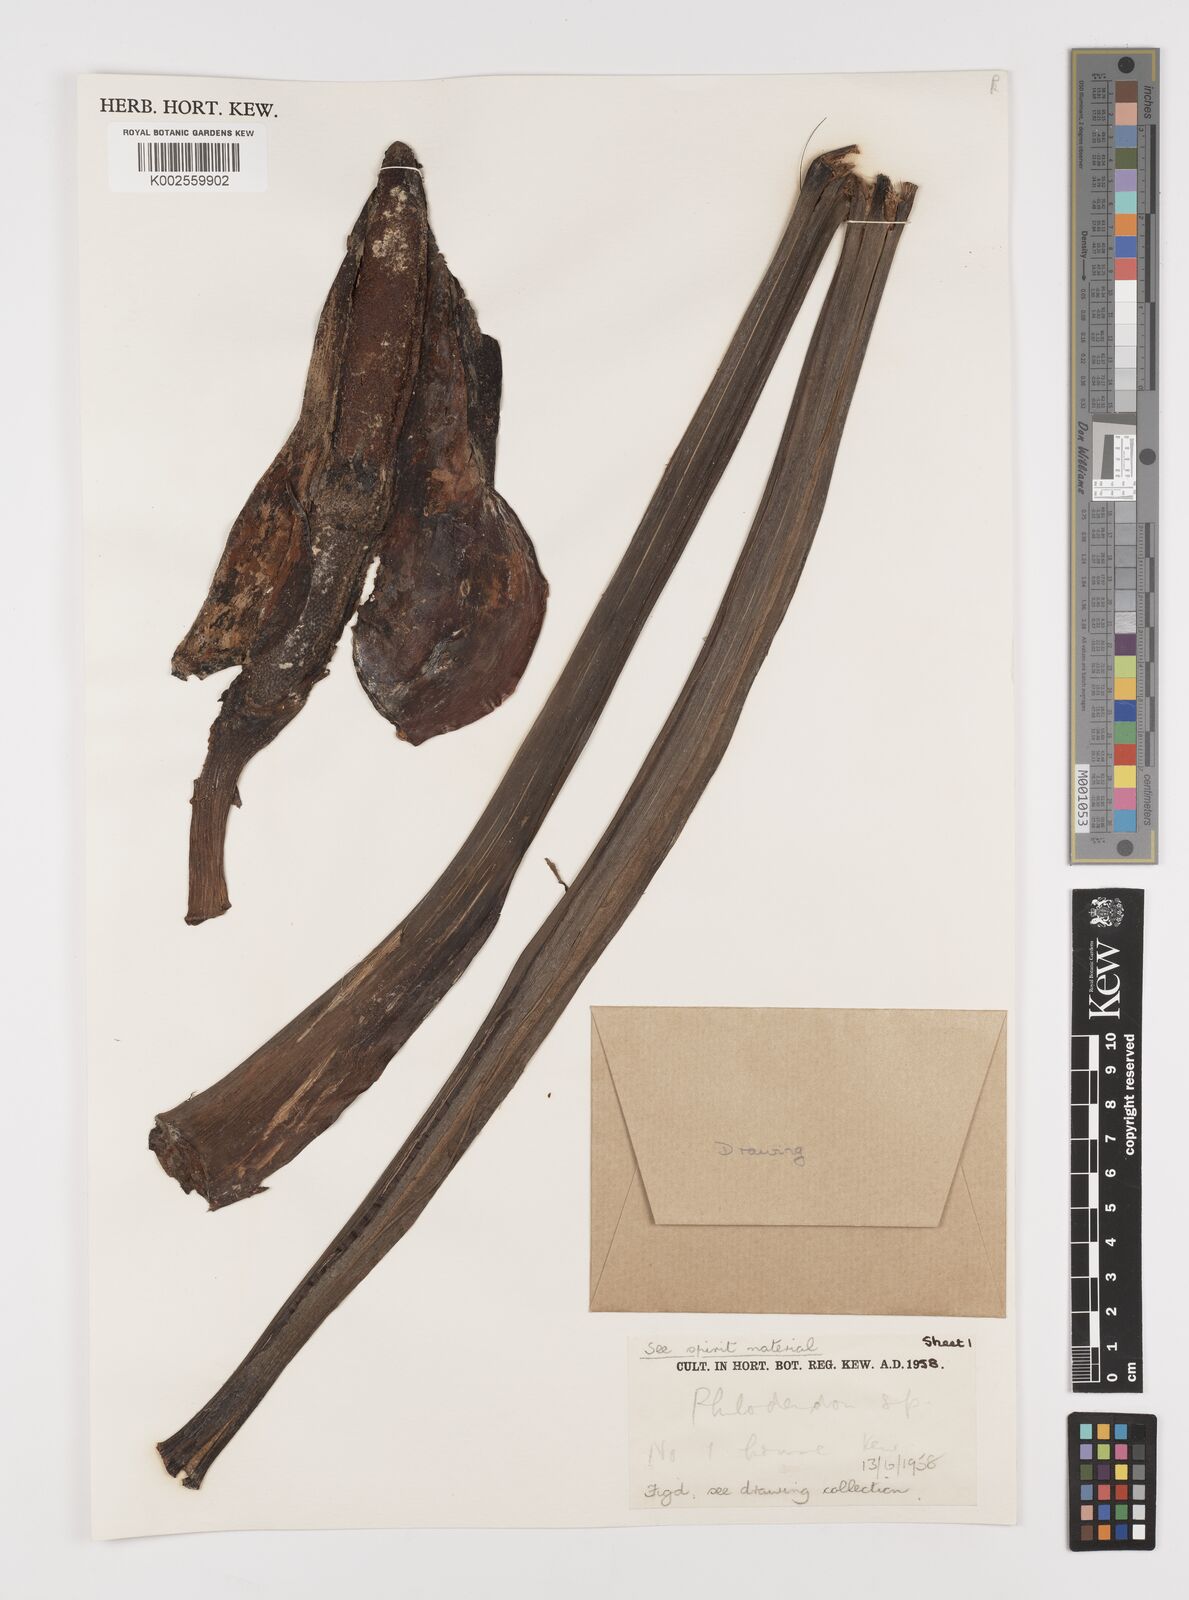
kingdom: Plantae
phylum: Tracheophyta
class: Liliopsida
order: Alismatales
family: Araceae
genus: Philodendron
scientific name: Philodendron
